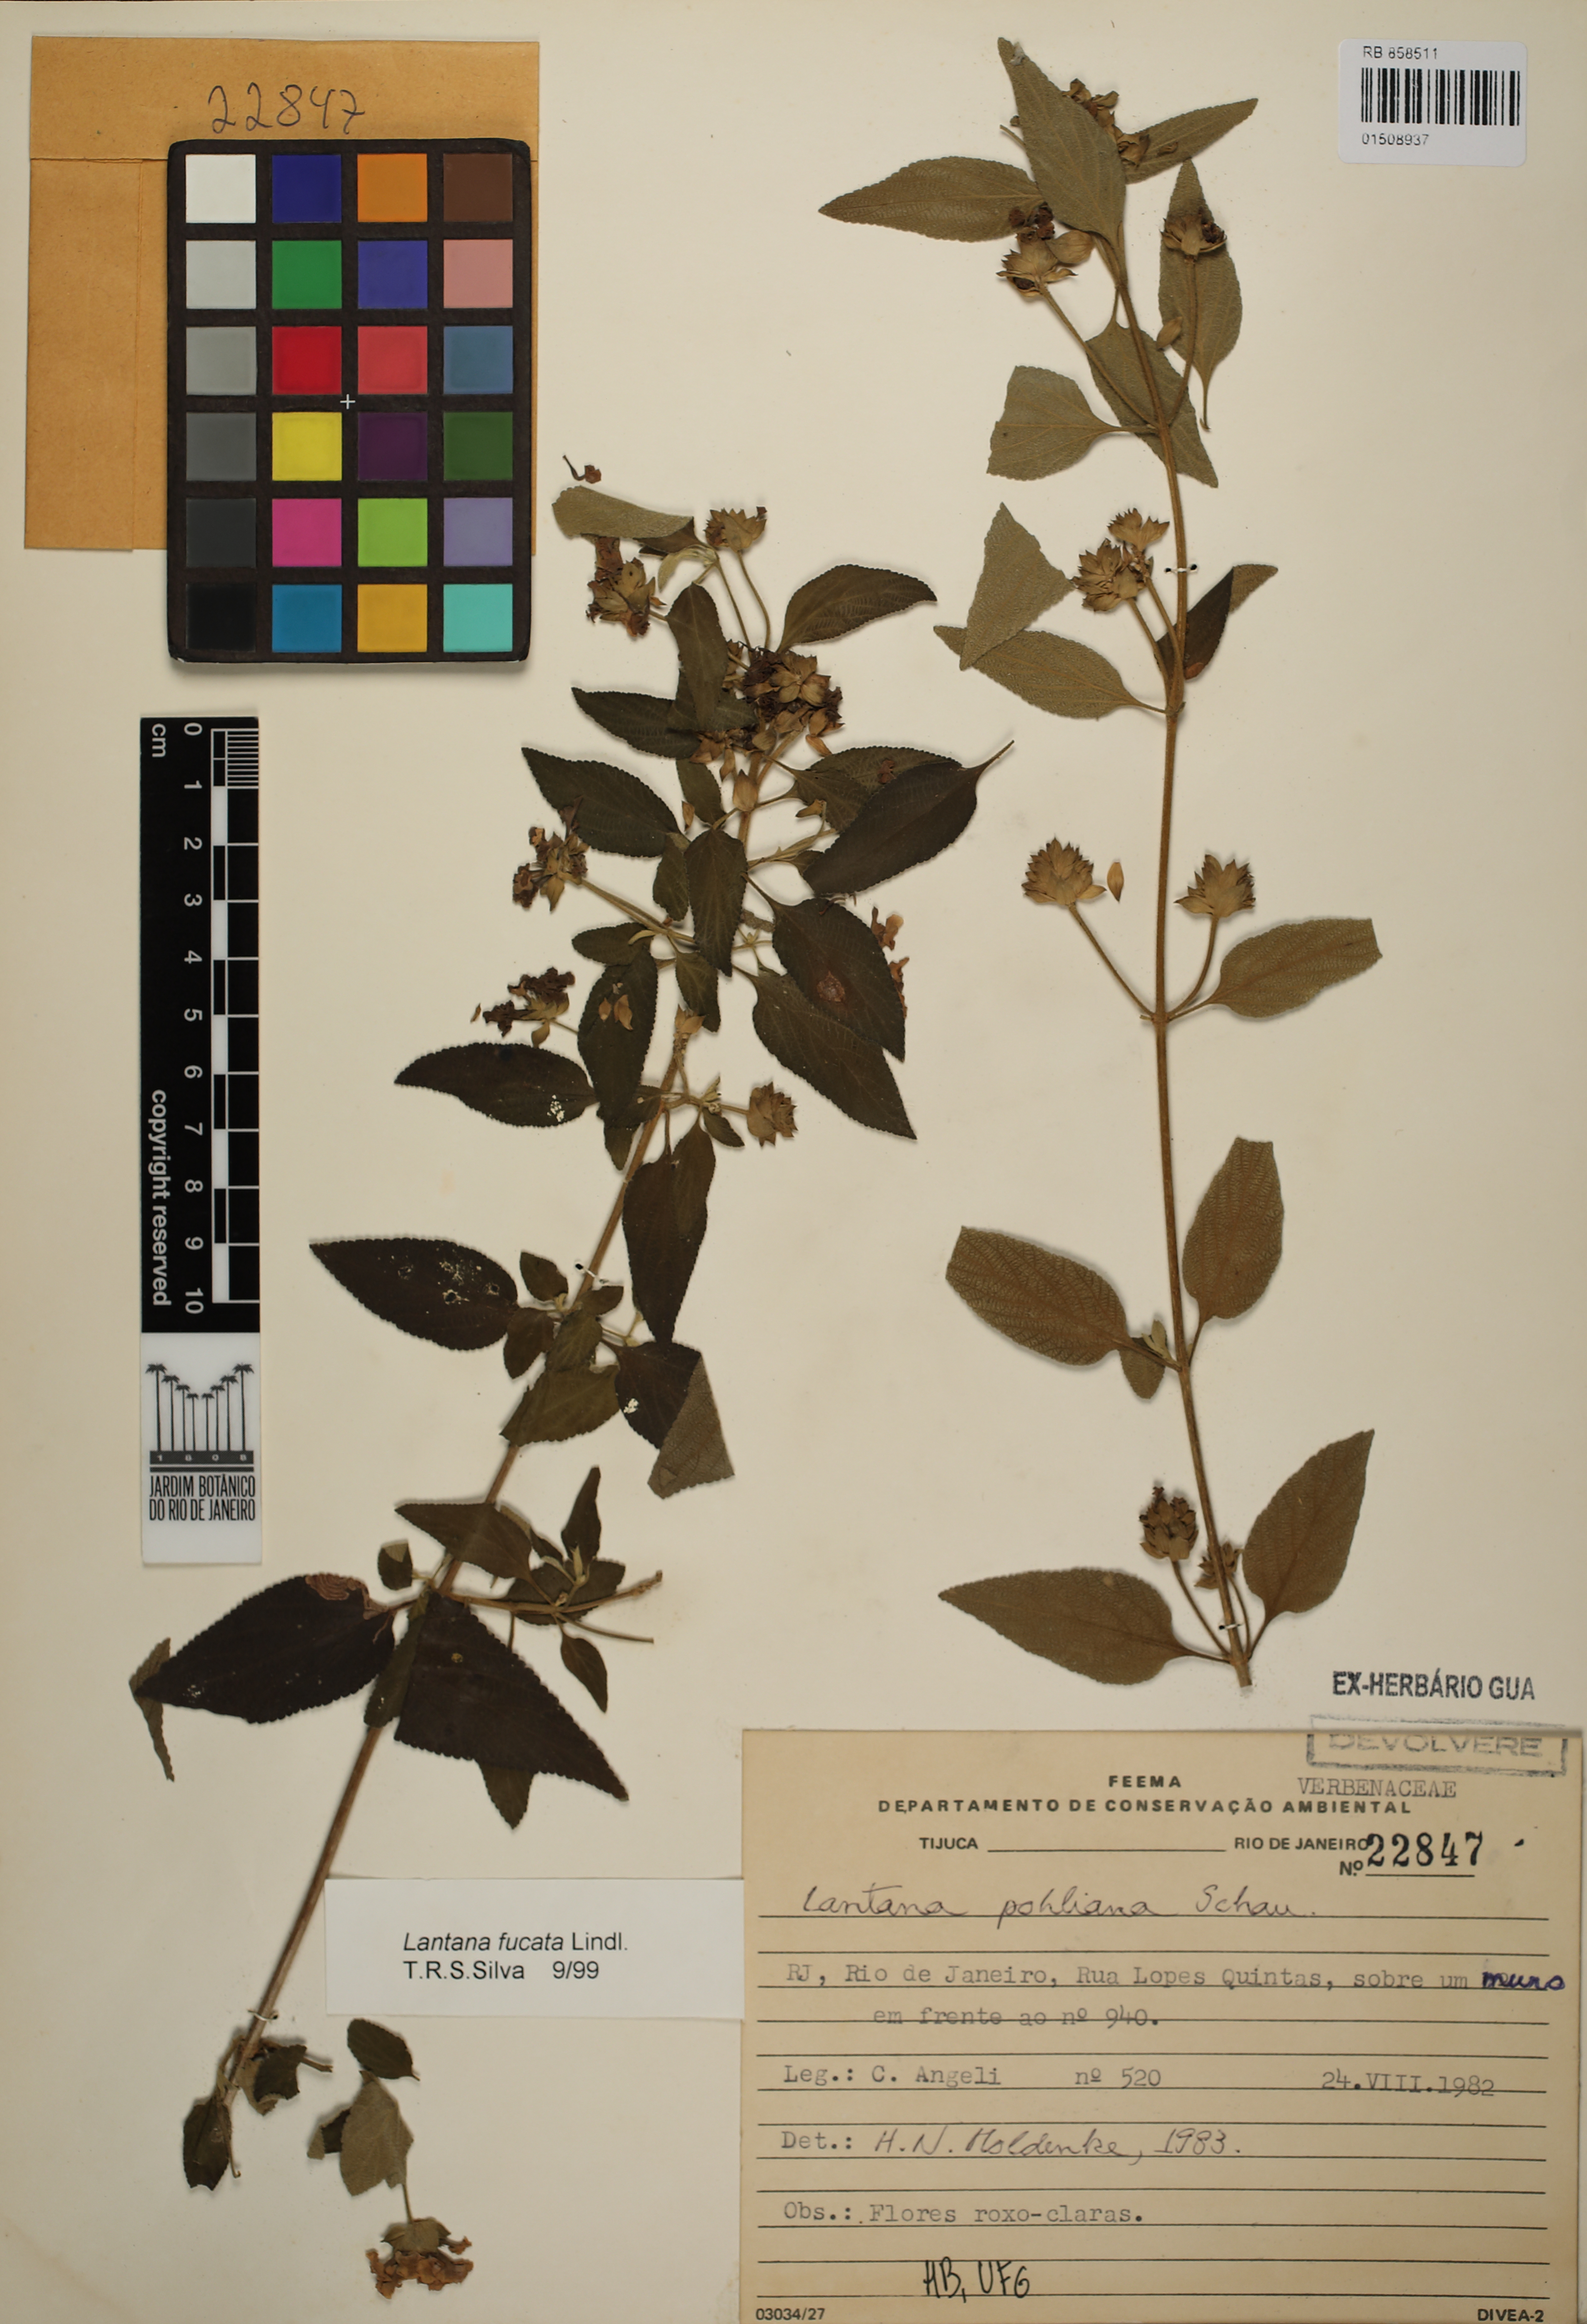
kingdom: Plantae
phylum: Tracheophyta
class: Magnoliopsida
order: Lamiales
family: Verbenaceae
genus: Lantana
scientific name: Lantana fucata
